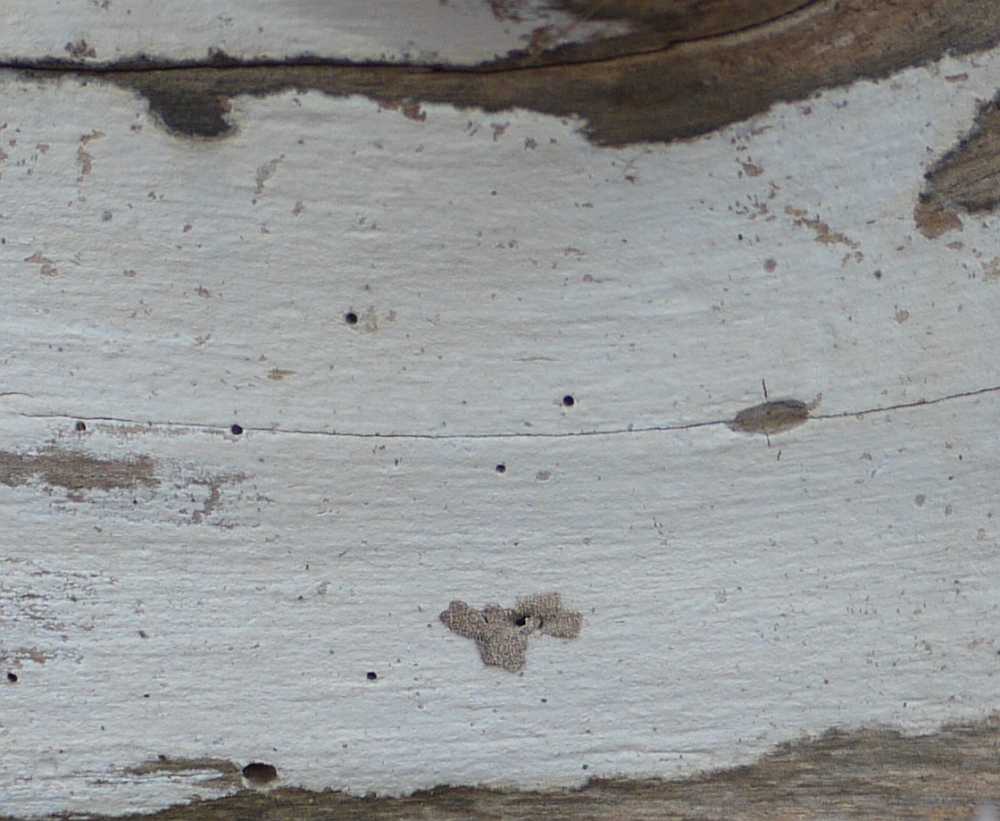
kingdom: Fungi
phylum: Basidiomycota
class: Agaricomycetes
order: Russulales
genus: Gloeohypochnicium
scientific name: Gloeohypochnicium analogum
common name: frugt-kalkskind
